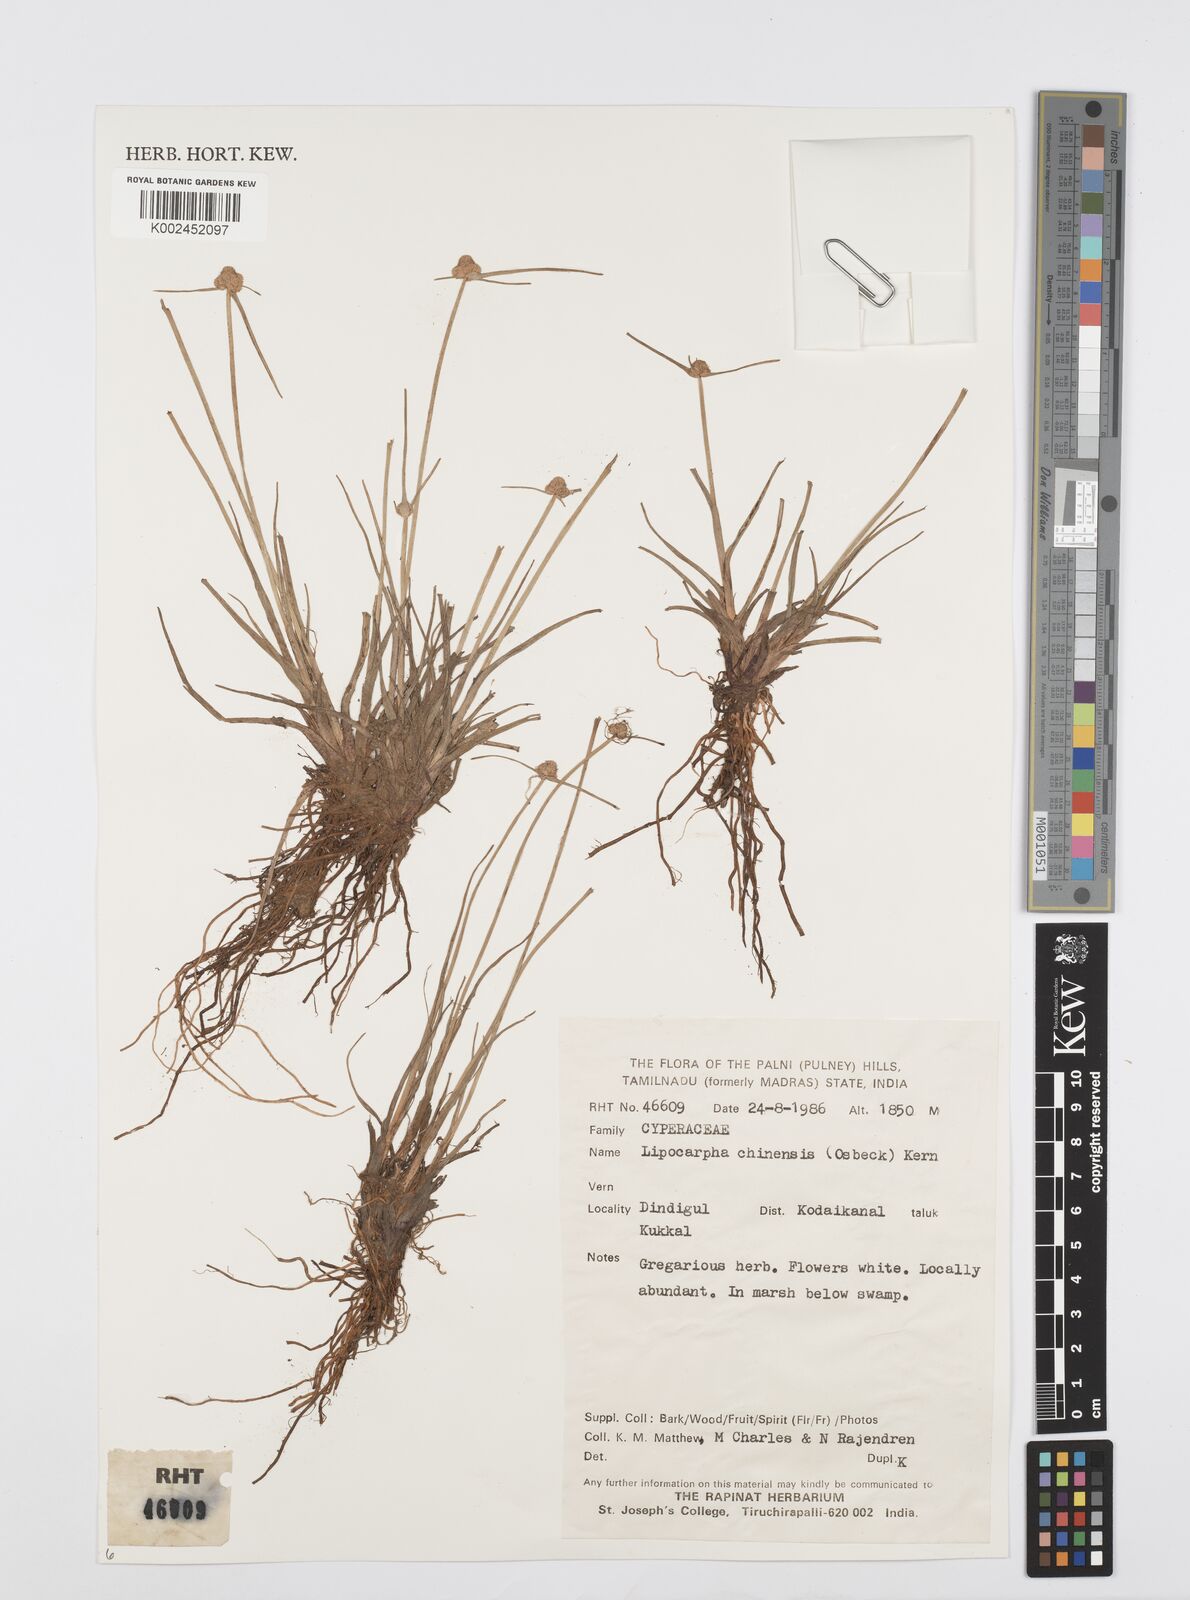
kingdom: Plantae
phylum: Tracheophyta
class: Liliopsida
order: Poales
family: Cyperaceae
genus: Cyperus
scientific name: Cyperus
